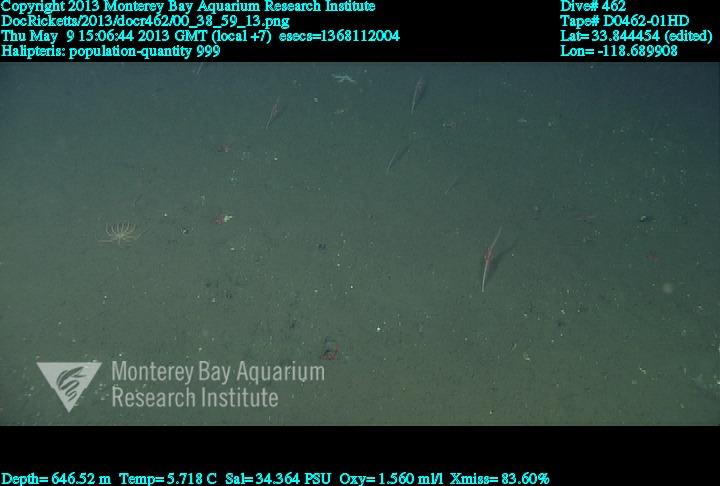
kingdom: Animalia
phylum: Cnidaria
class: Anthozoa
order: Scleralcyonacea
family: Balticinidae
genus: Balticina
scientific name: Balticina
